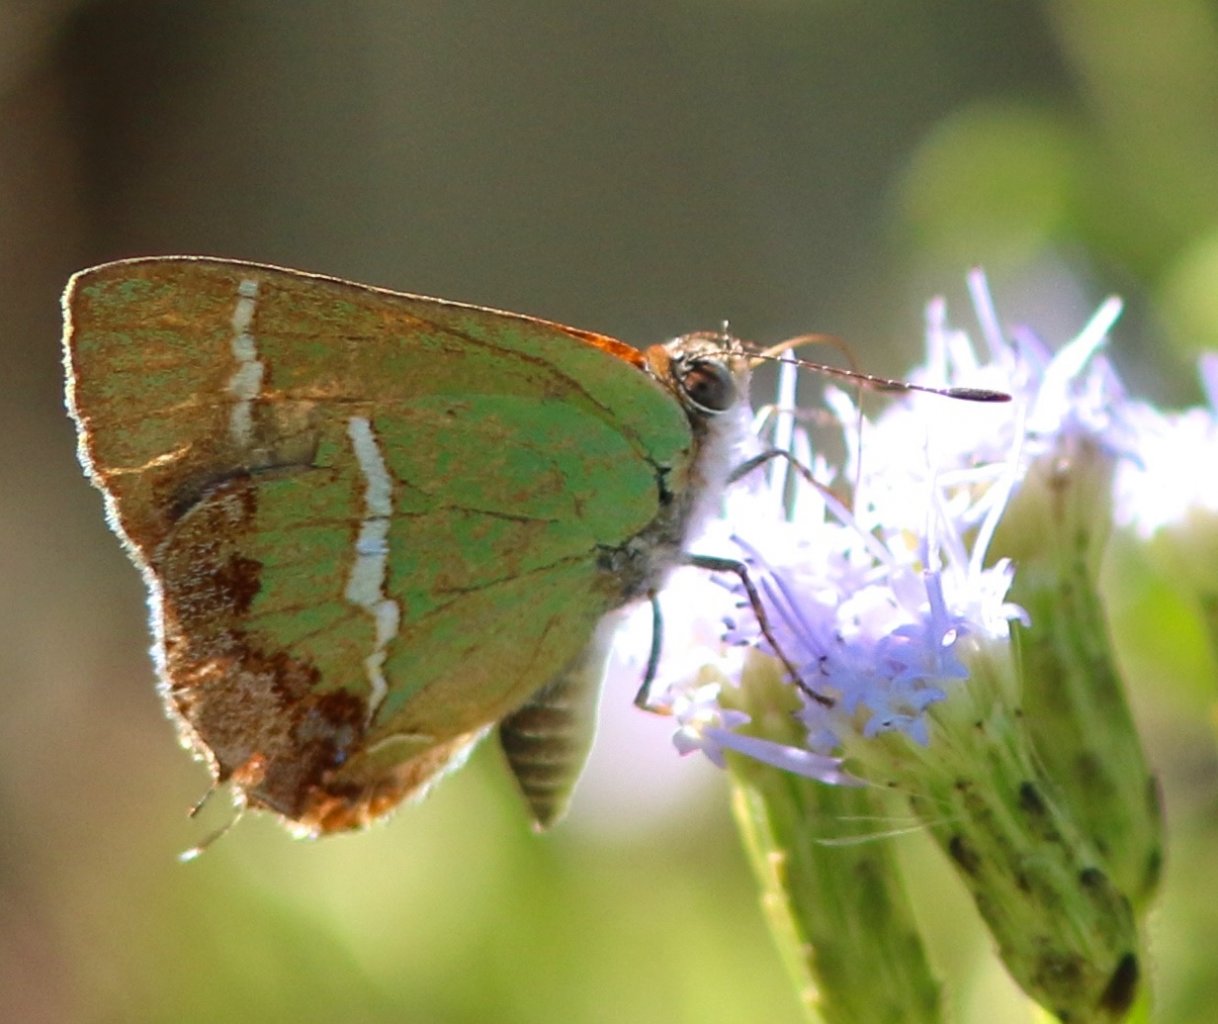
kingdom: Animalia
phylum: Arthropoda
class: Insecta
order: Lepidoptera
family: Lycaenidae
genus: Chlorostrymon
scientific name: Chlorostrymon simaethis
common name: Silver-banded Hairstreak
